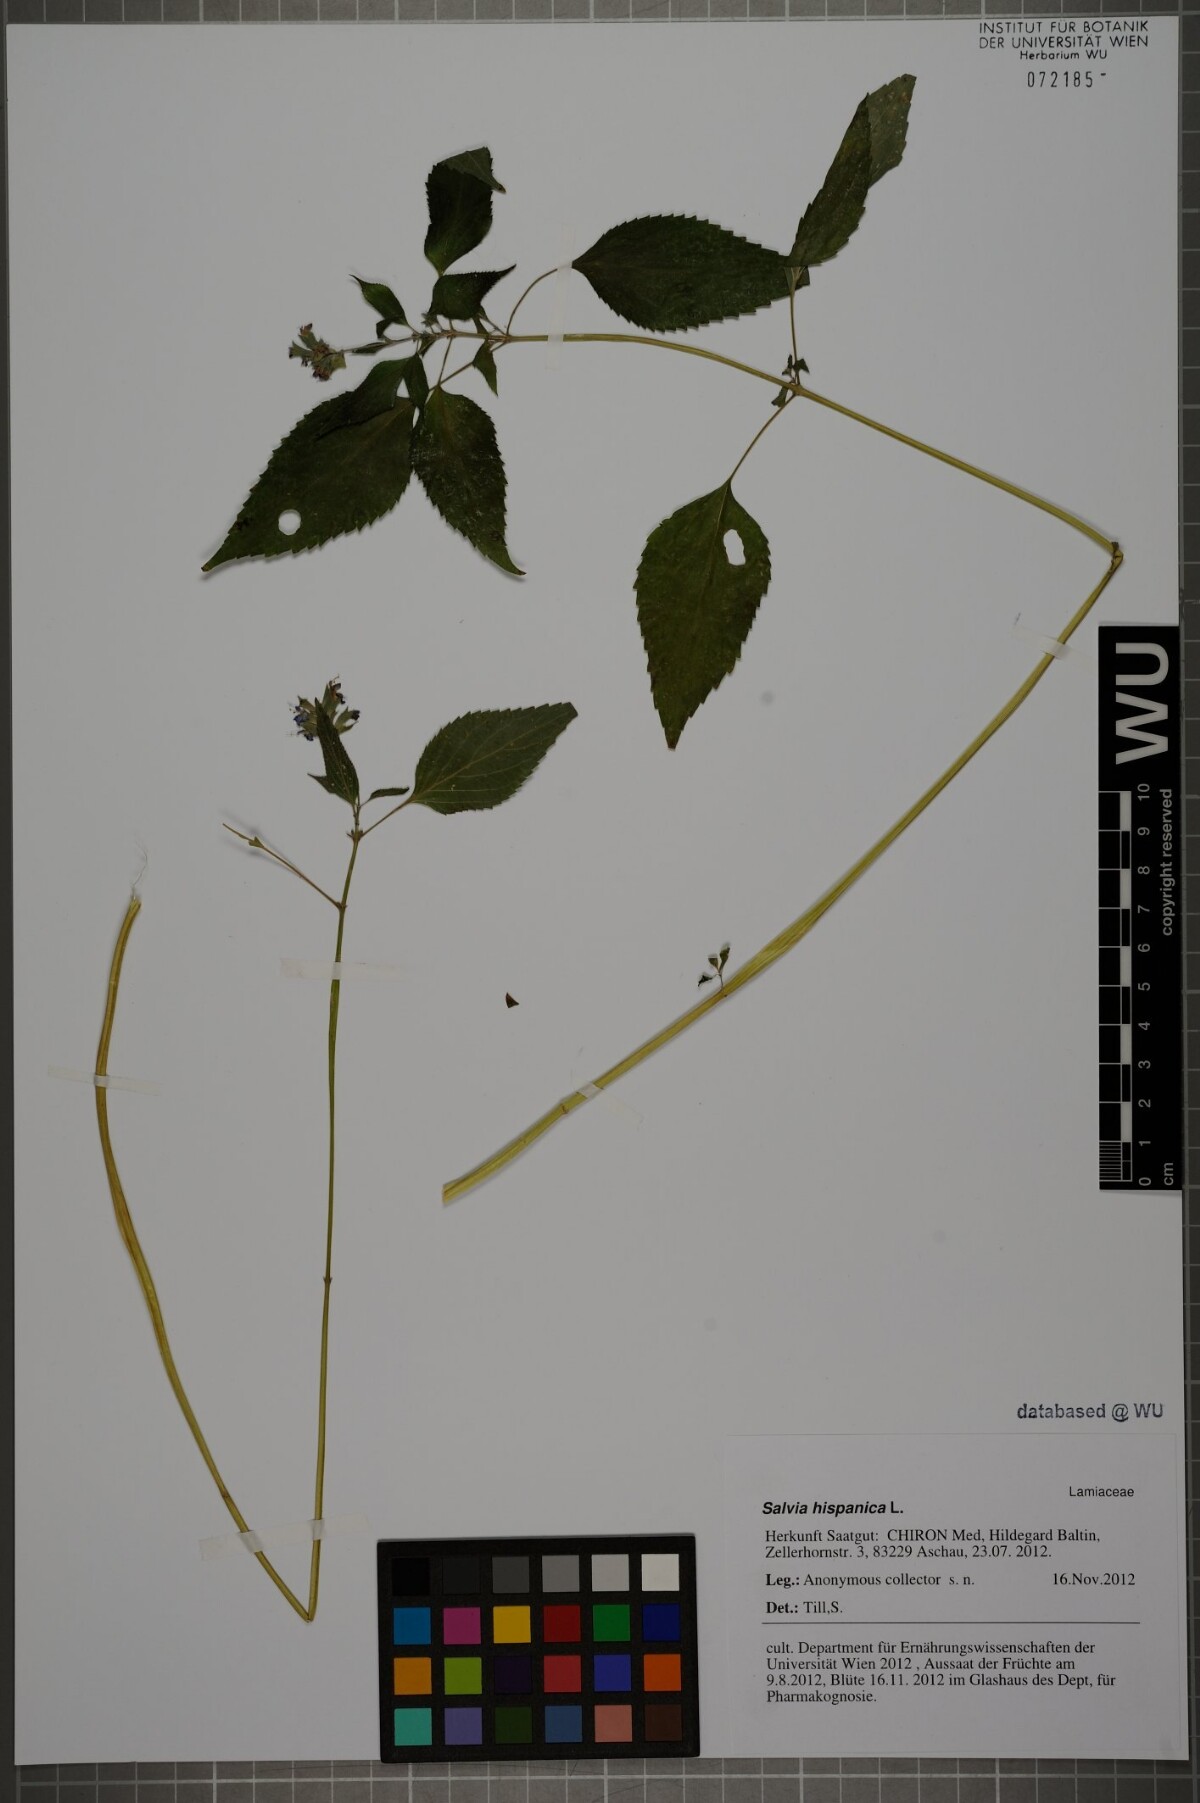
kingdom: Plantae
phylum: Tracheophyta
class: Magnoliopsida
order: Lamiales
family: Lamiaceae
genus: Salvia
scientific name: Salvia hispanica
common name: Chia
